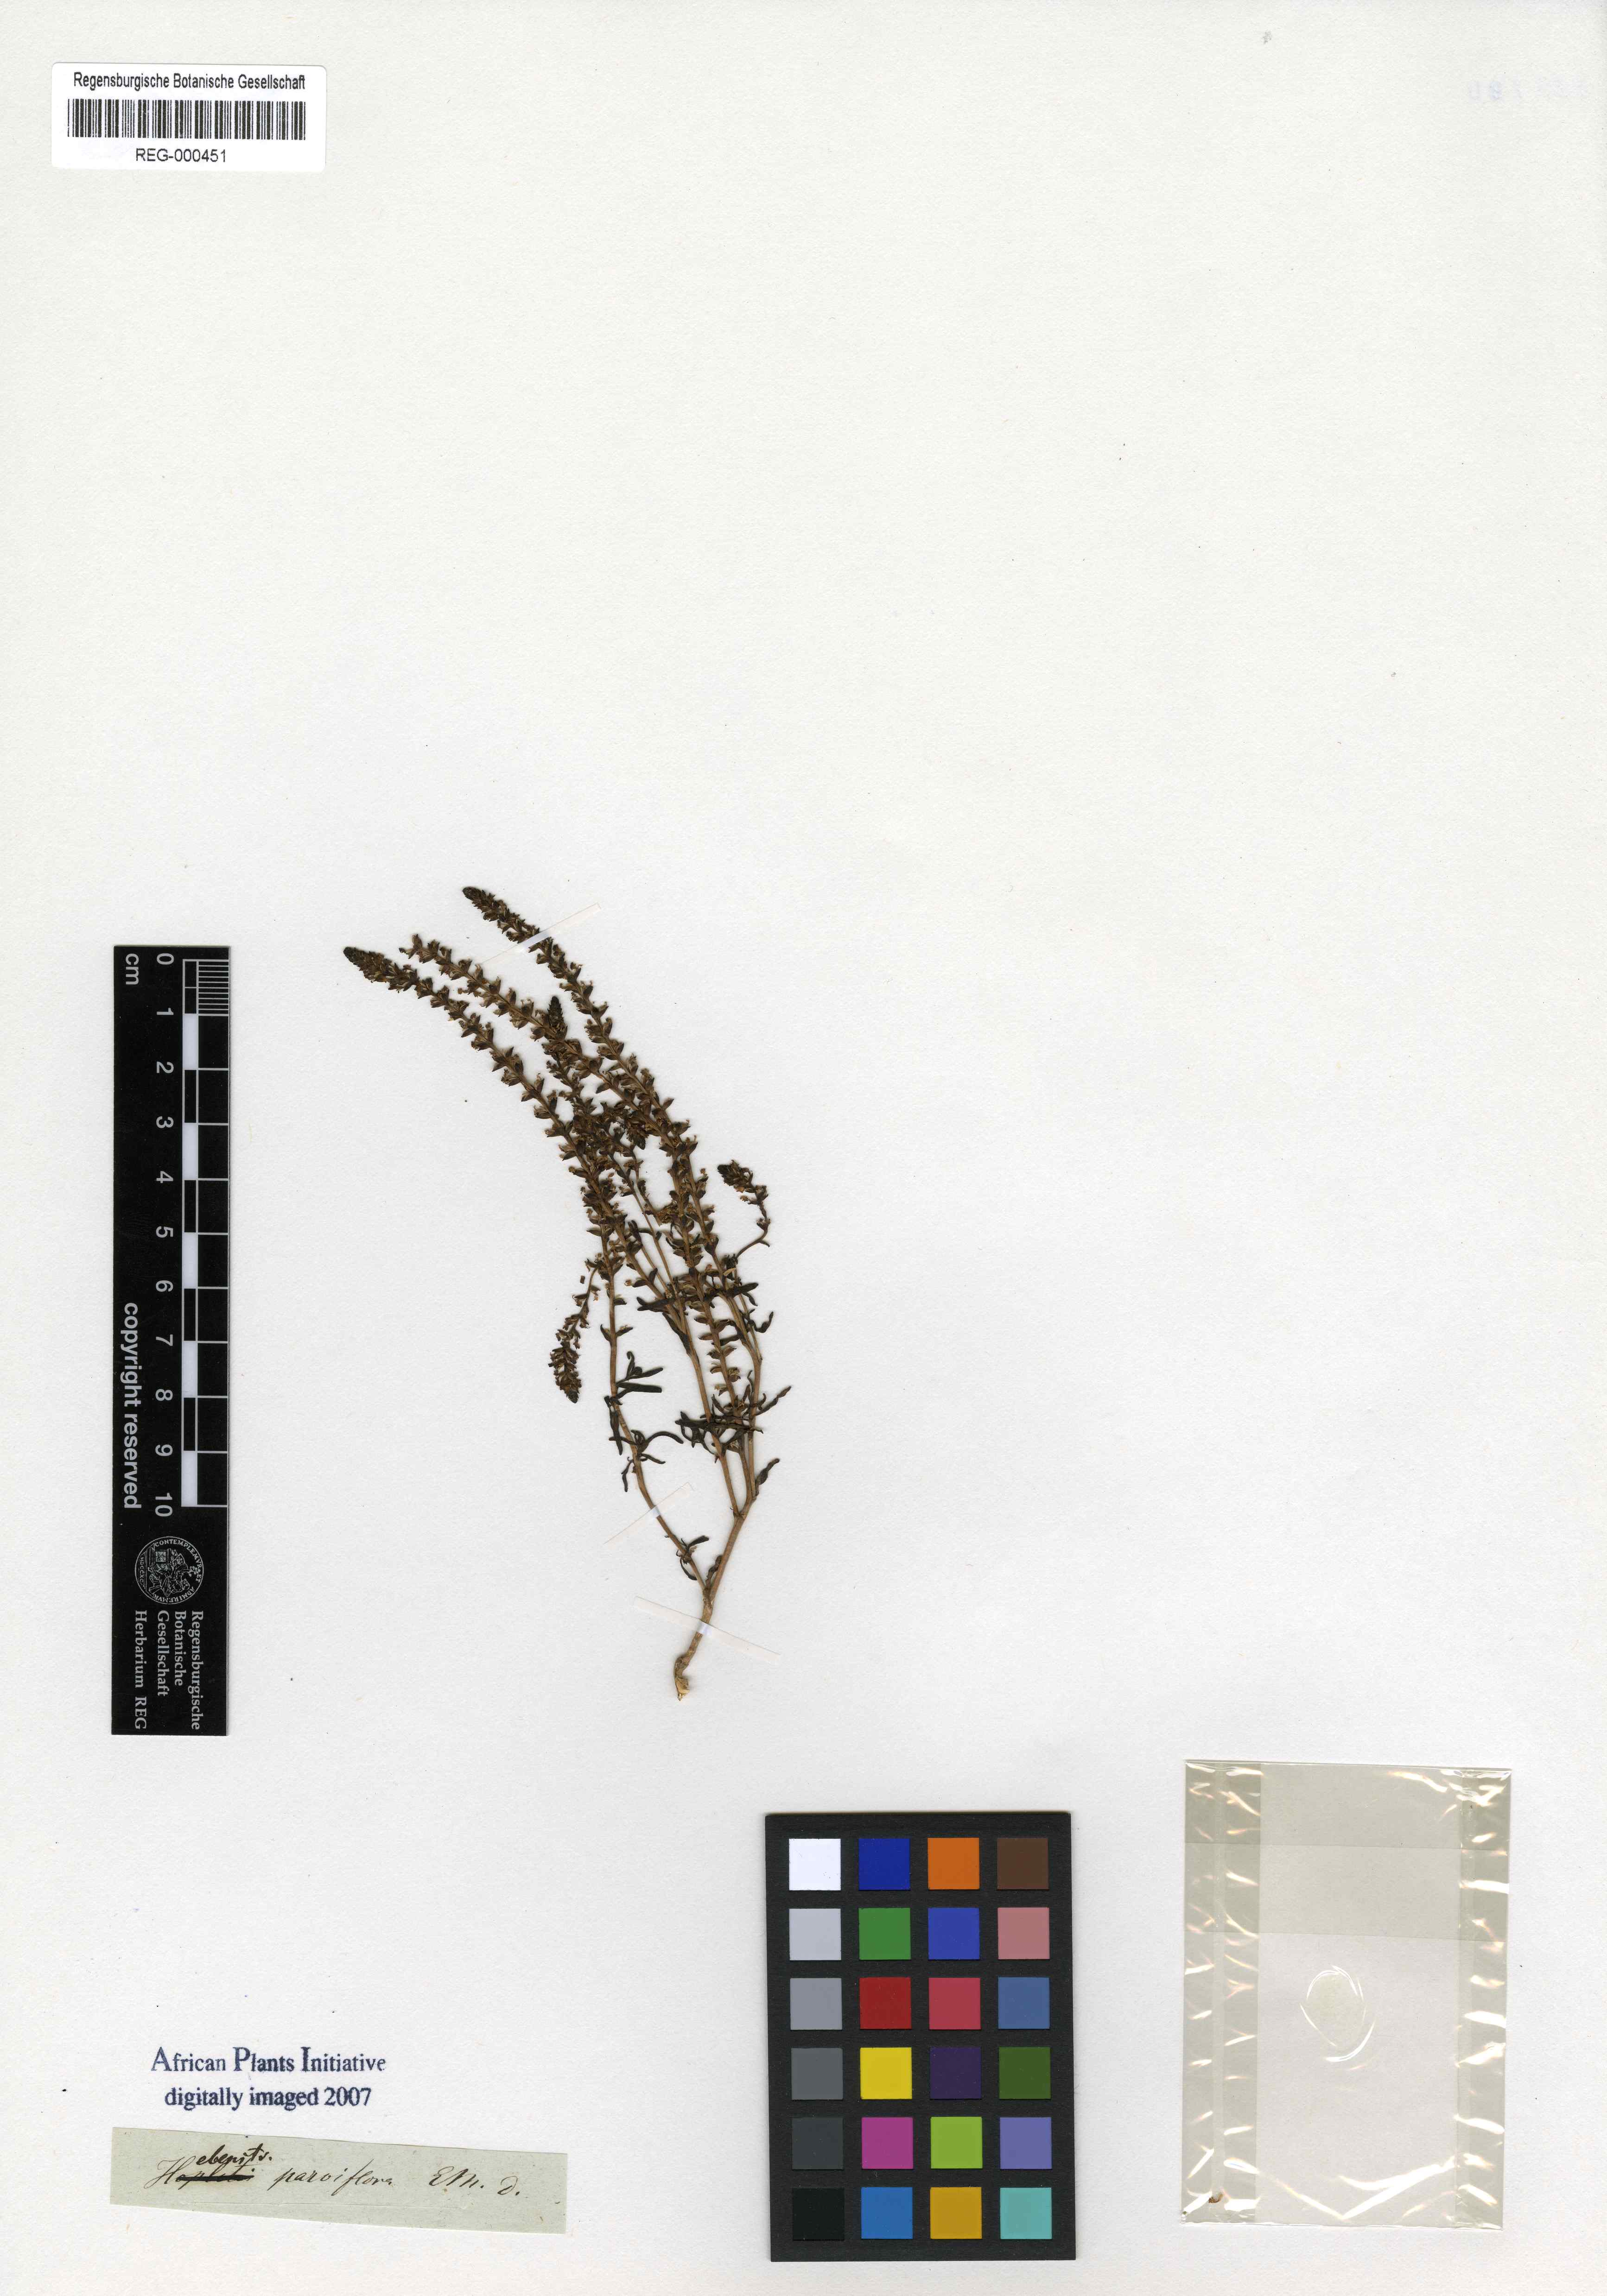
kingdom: Plantae
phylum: Tracheophyta
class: Magnoliopsida
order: Lamiales
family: Scrophulariaceae
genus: Hebenstretia
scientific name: Hebenstretia parviflora
